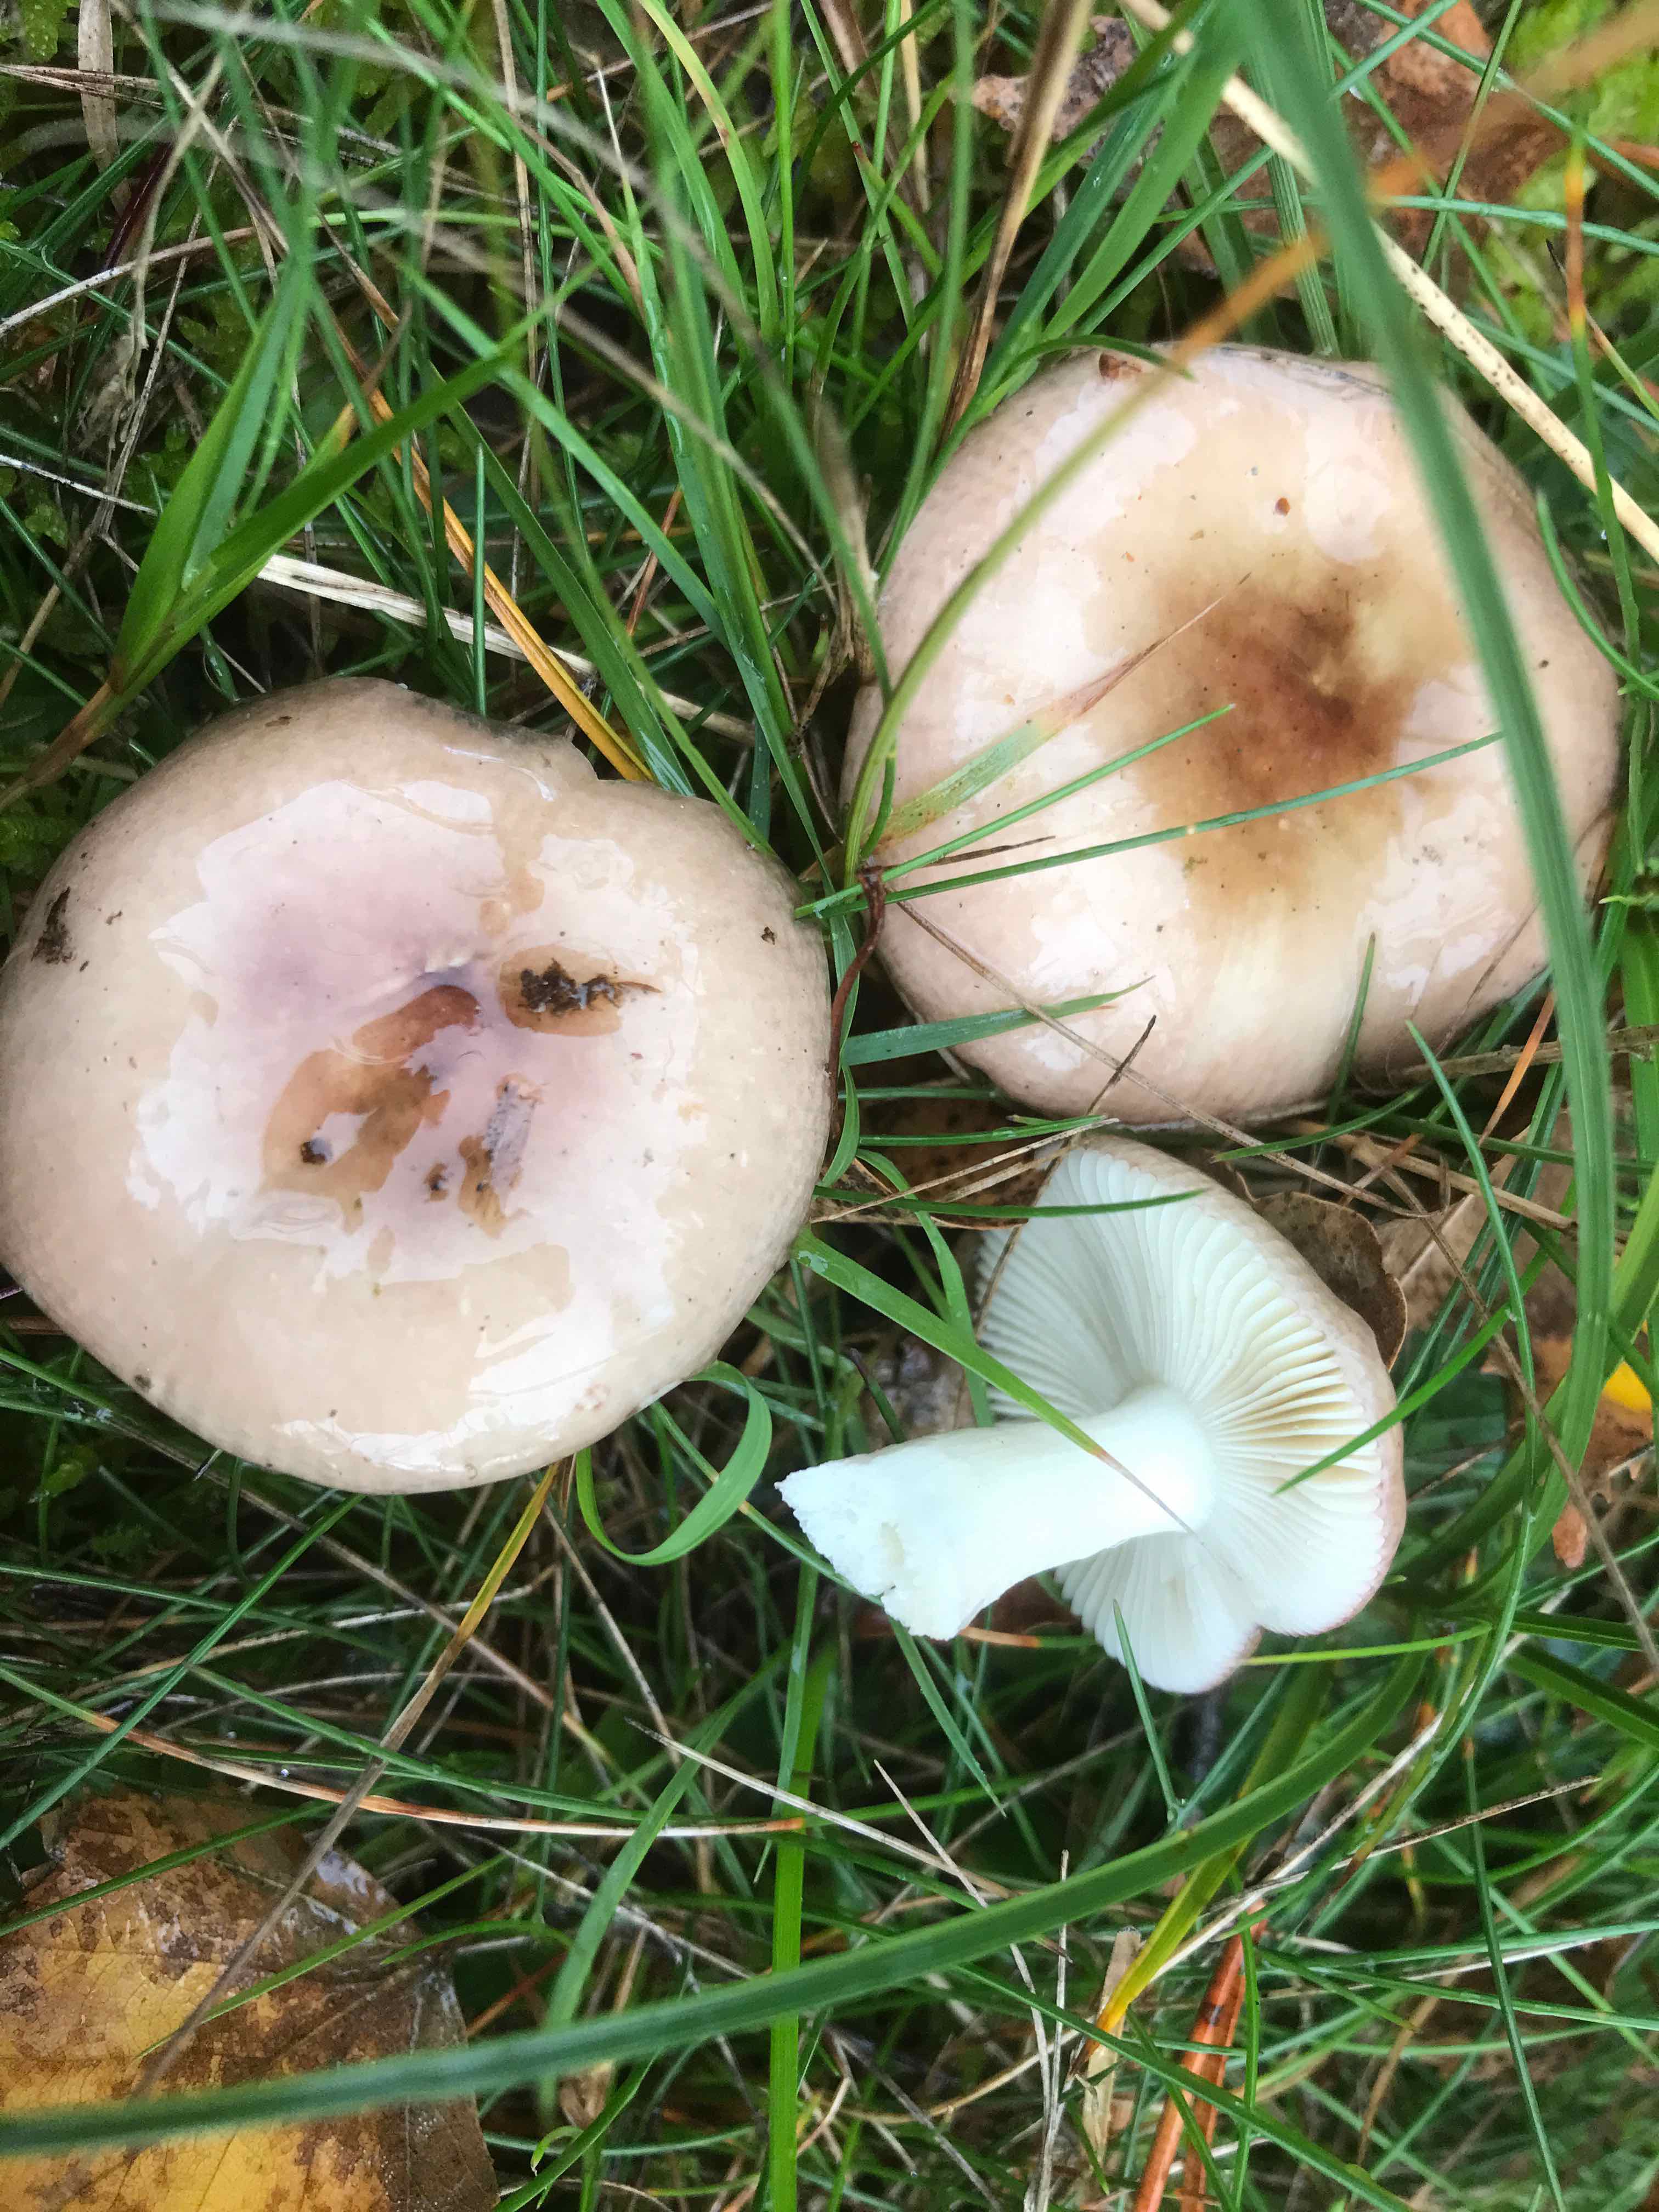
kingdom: Fungi
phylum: Basidiomycota
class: Agaricomycetes
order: Russulales
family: Russulaceae
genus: Russula
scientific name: Russula versicolor
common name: foranderlig skørhat
